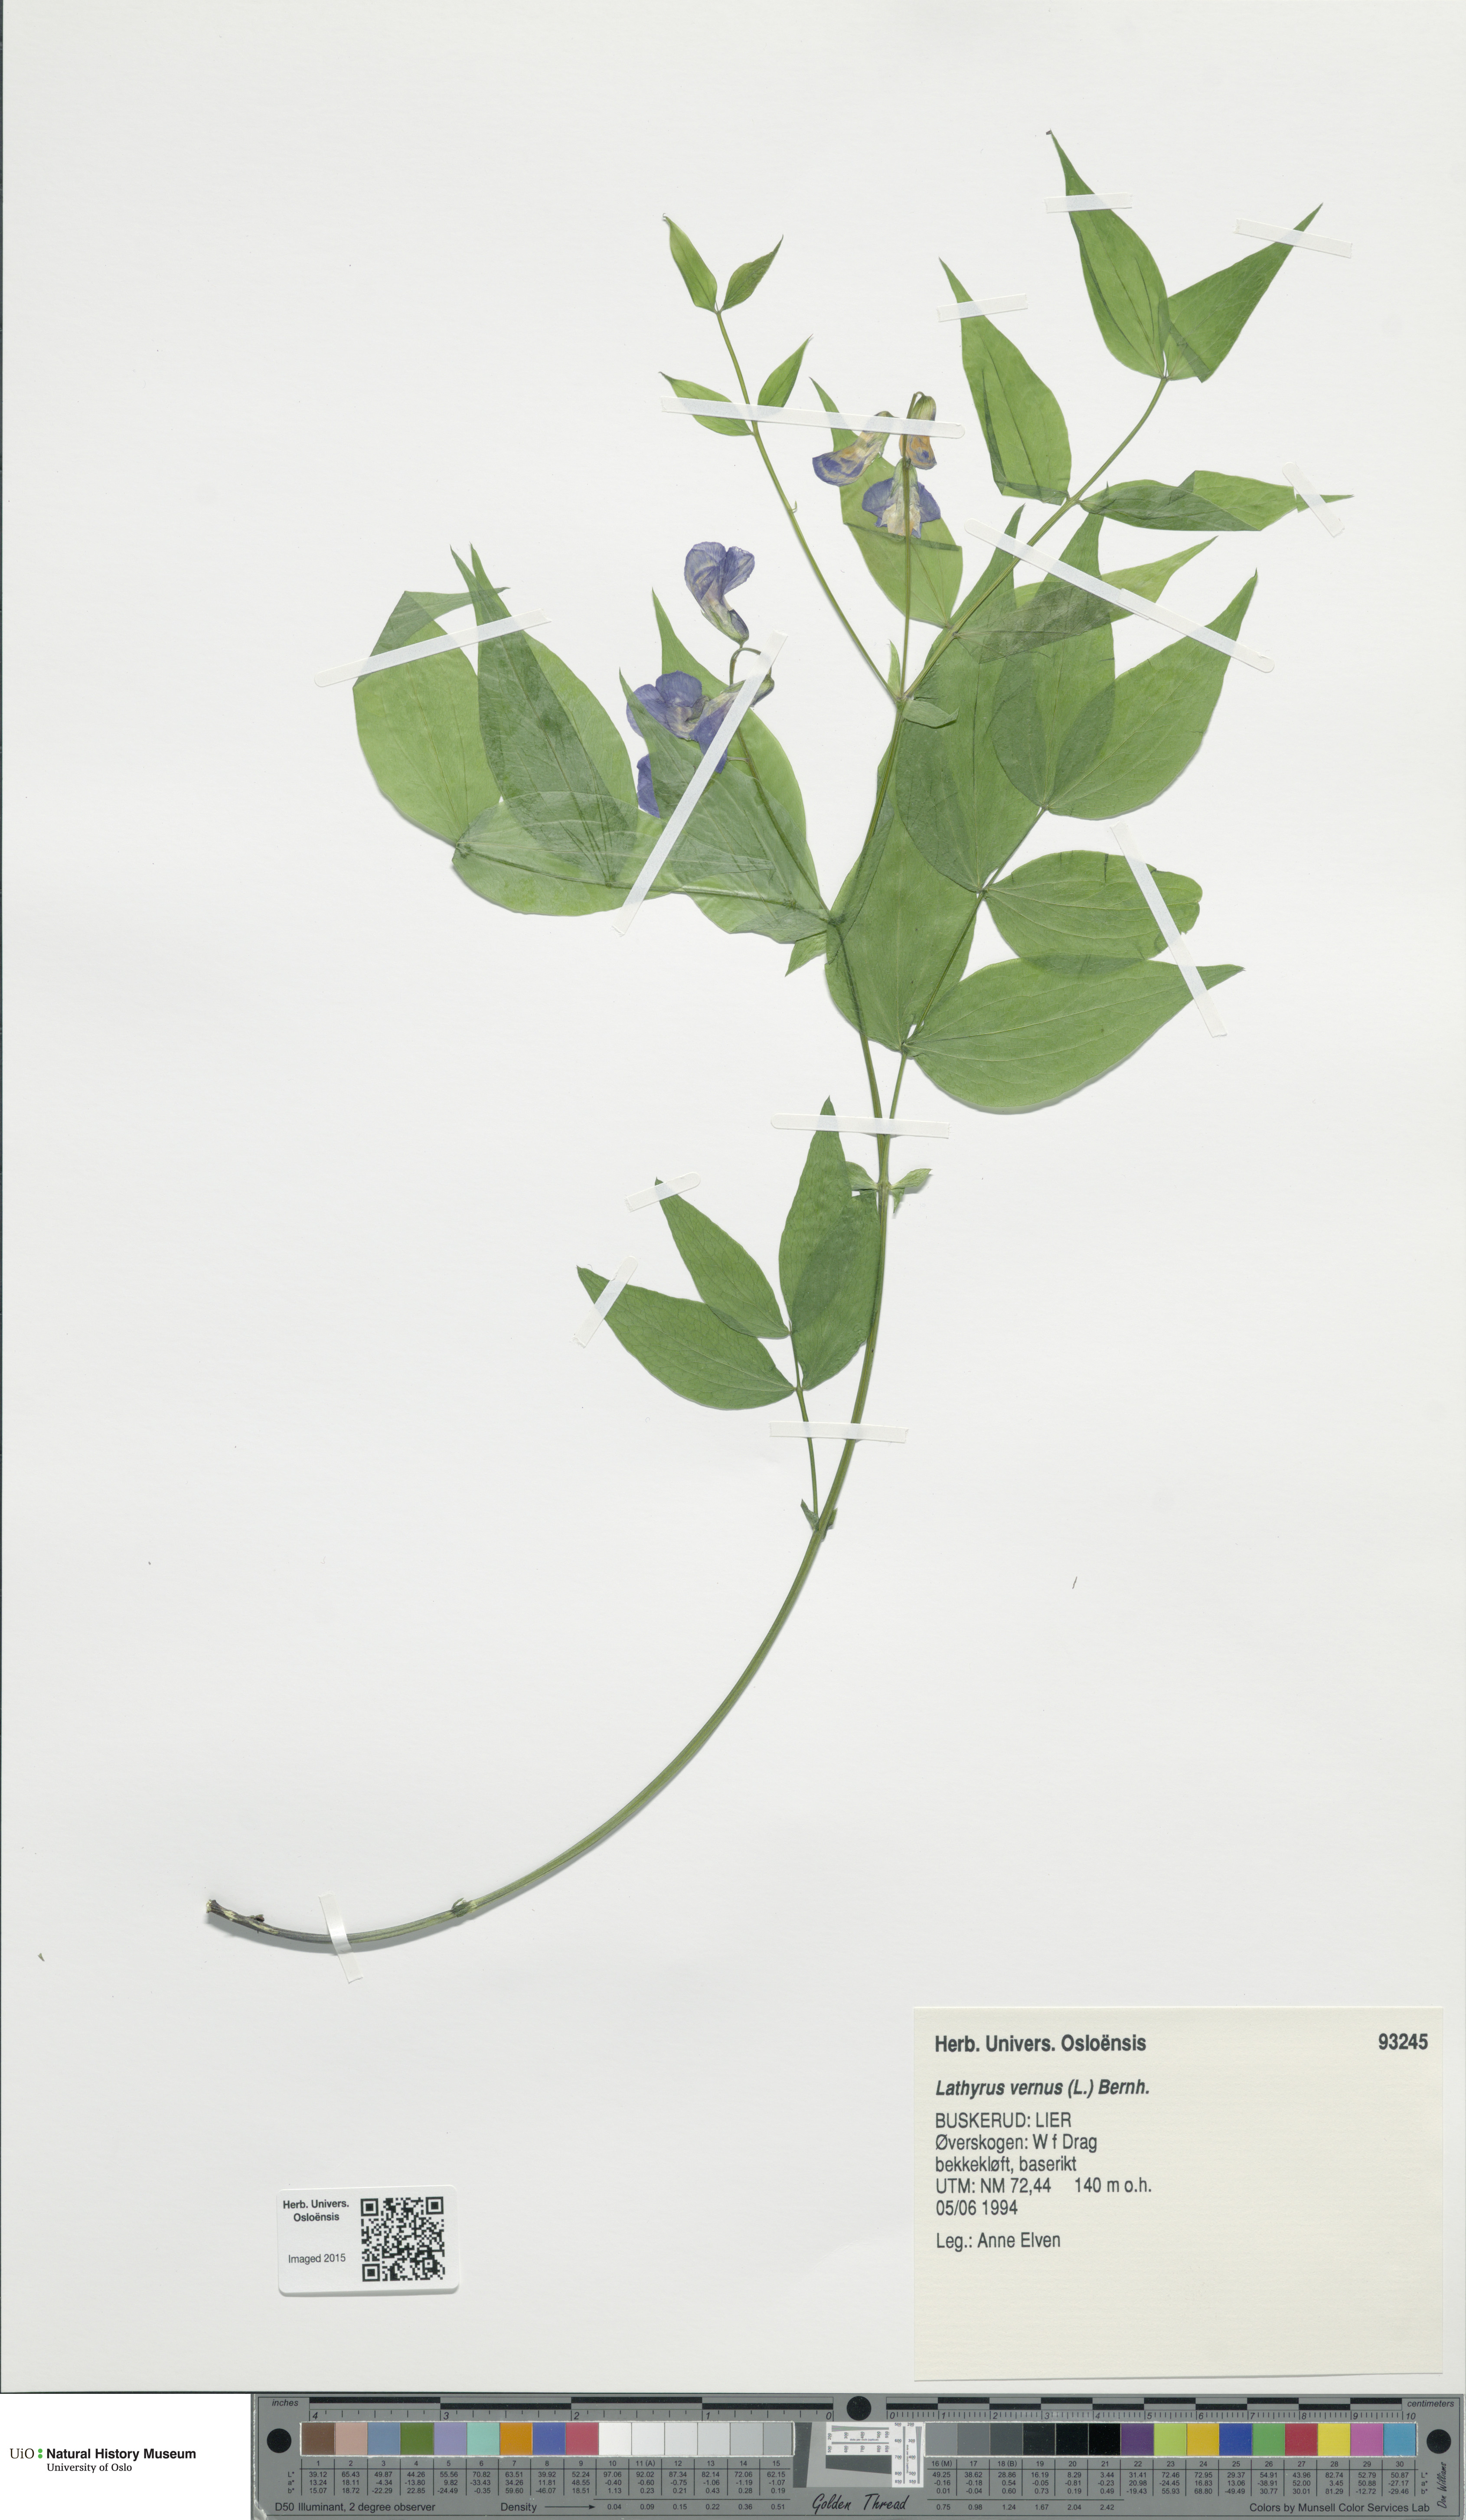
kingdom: Plantae
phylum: Tracheophyta
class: Magnoliopsida
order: Fabales
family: Fabaceae
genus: Lathyrus
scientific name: Lathyrus vernus
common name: Spring pea
